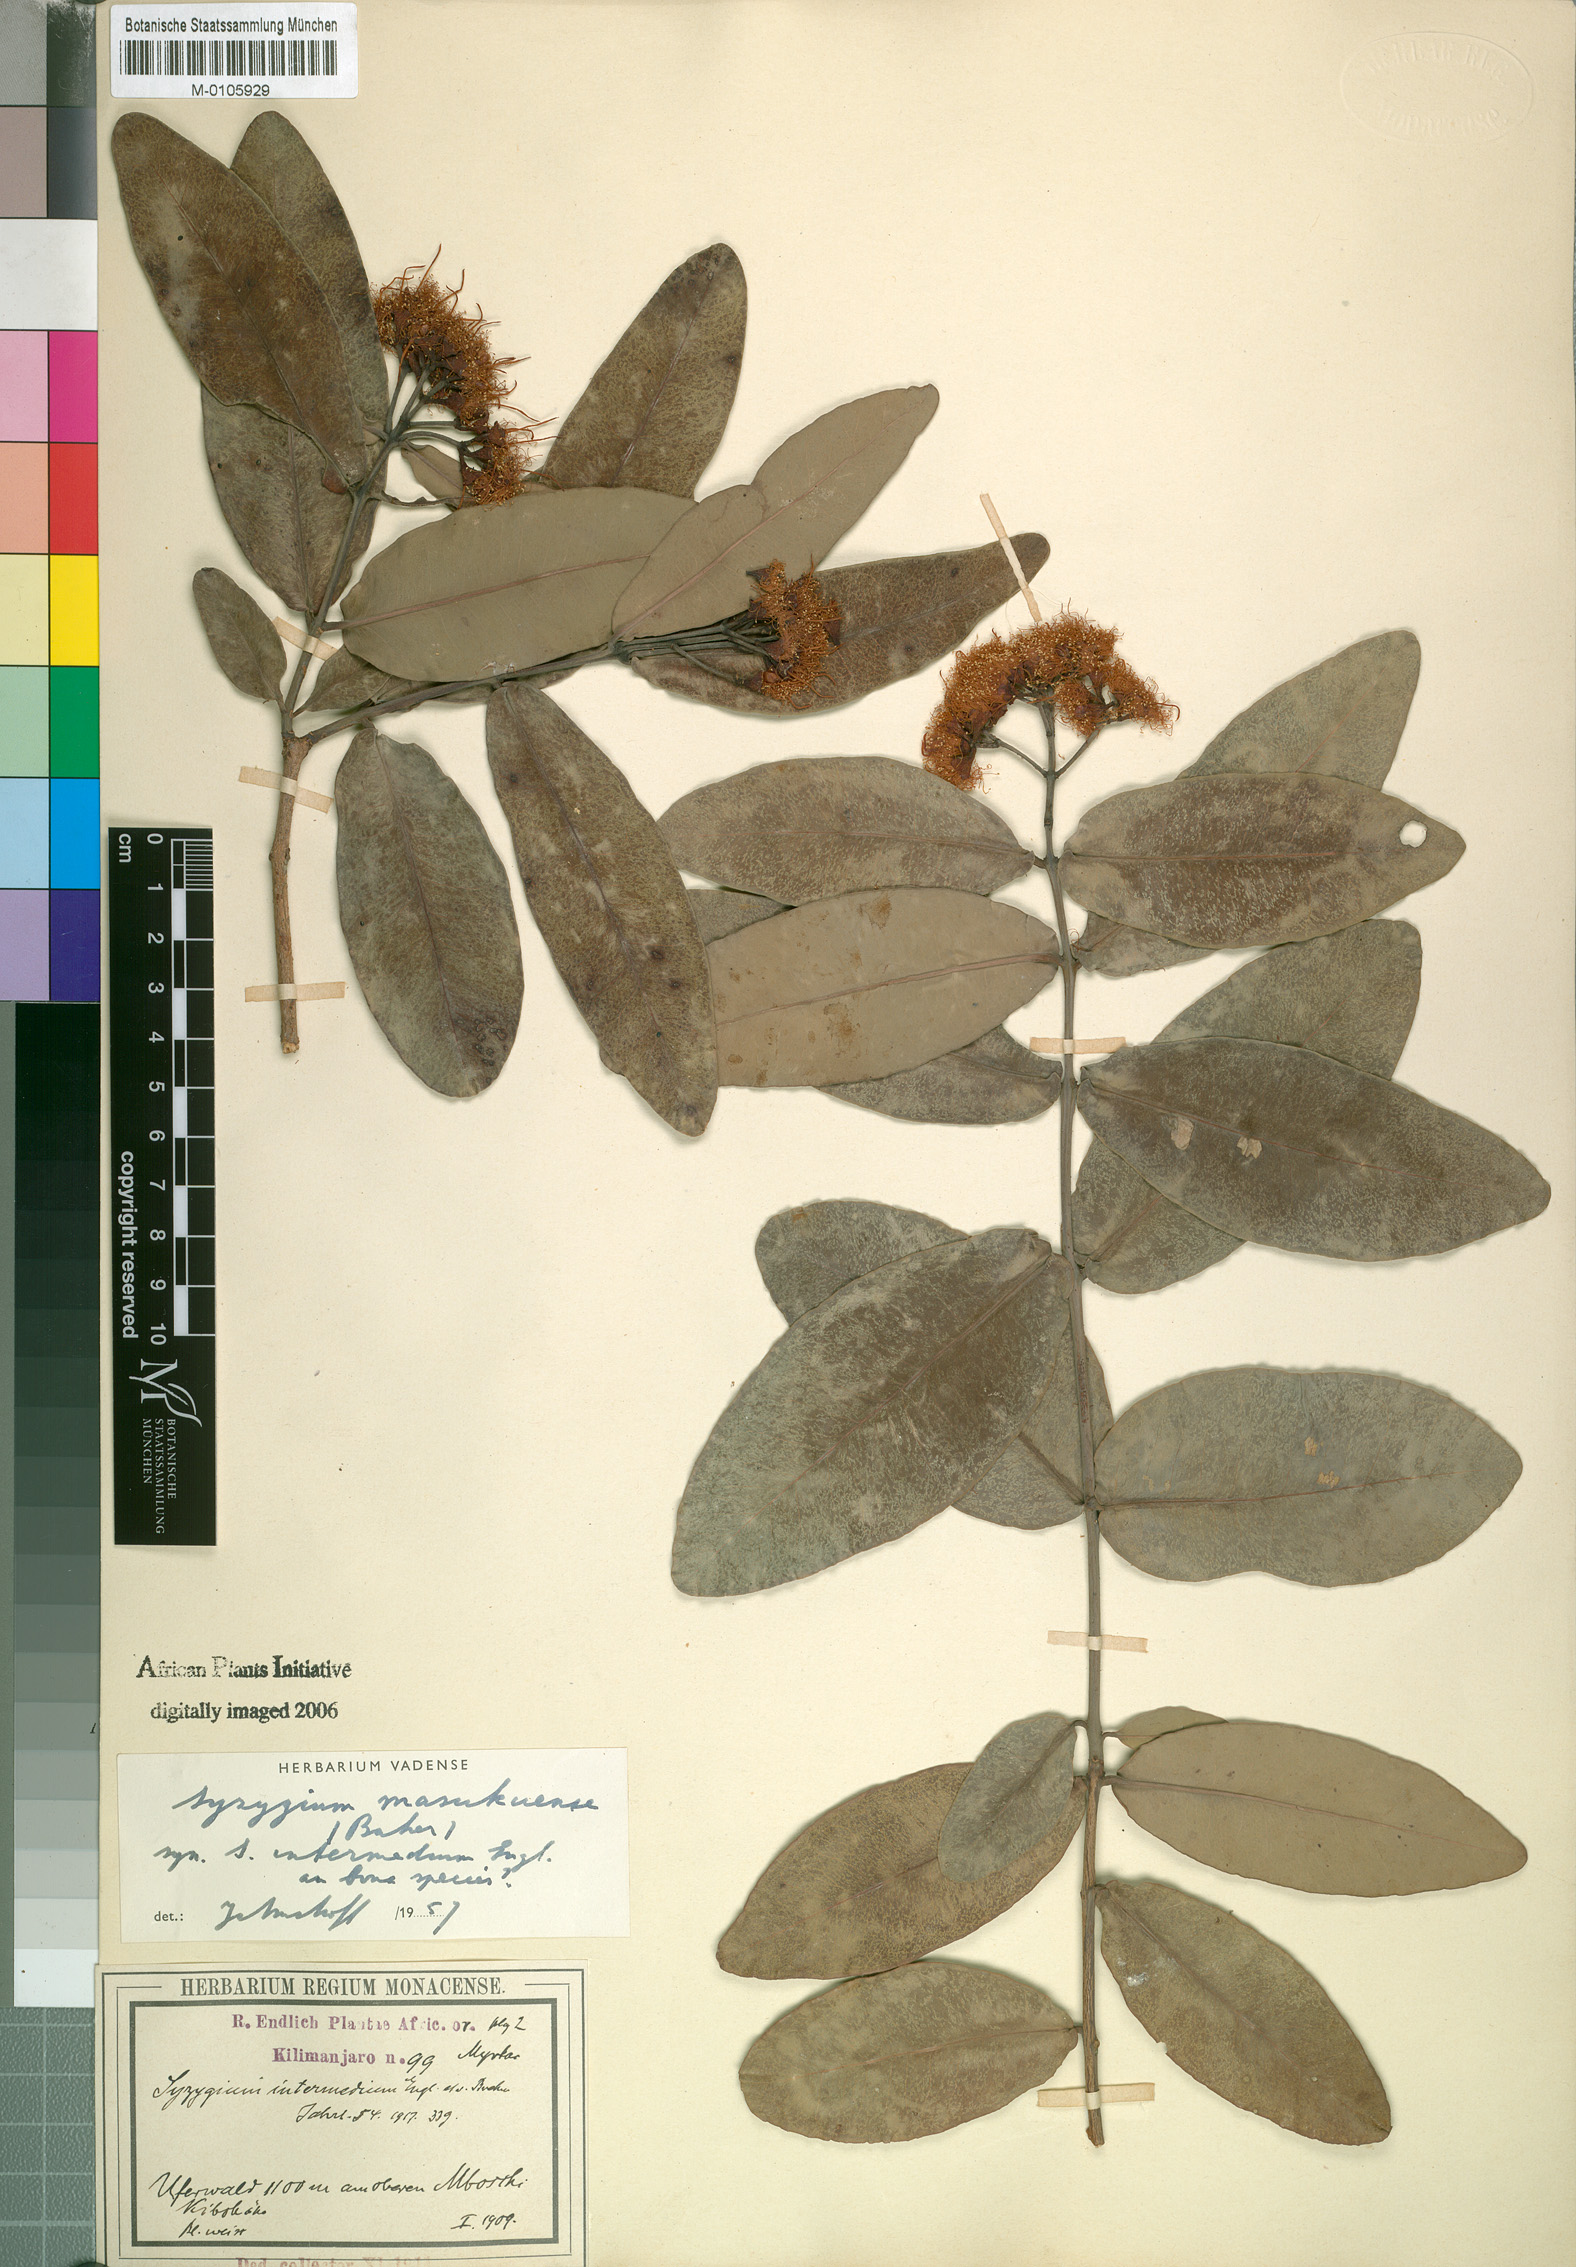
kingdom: Plantae
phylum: Tracheophyta
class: Magnoliopsida
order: Myrtales
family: Myrtaceae
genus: Syzygium
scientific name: Syzygium masukuense
